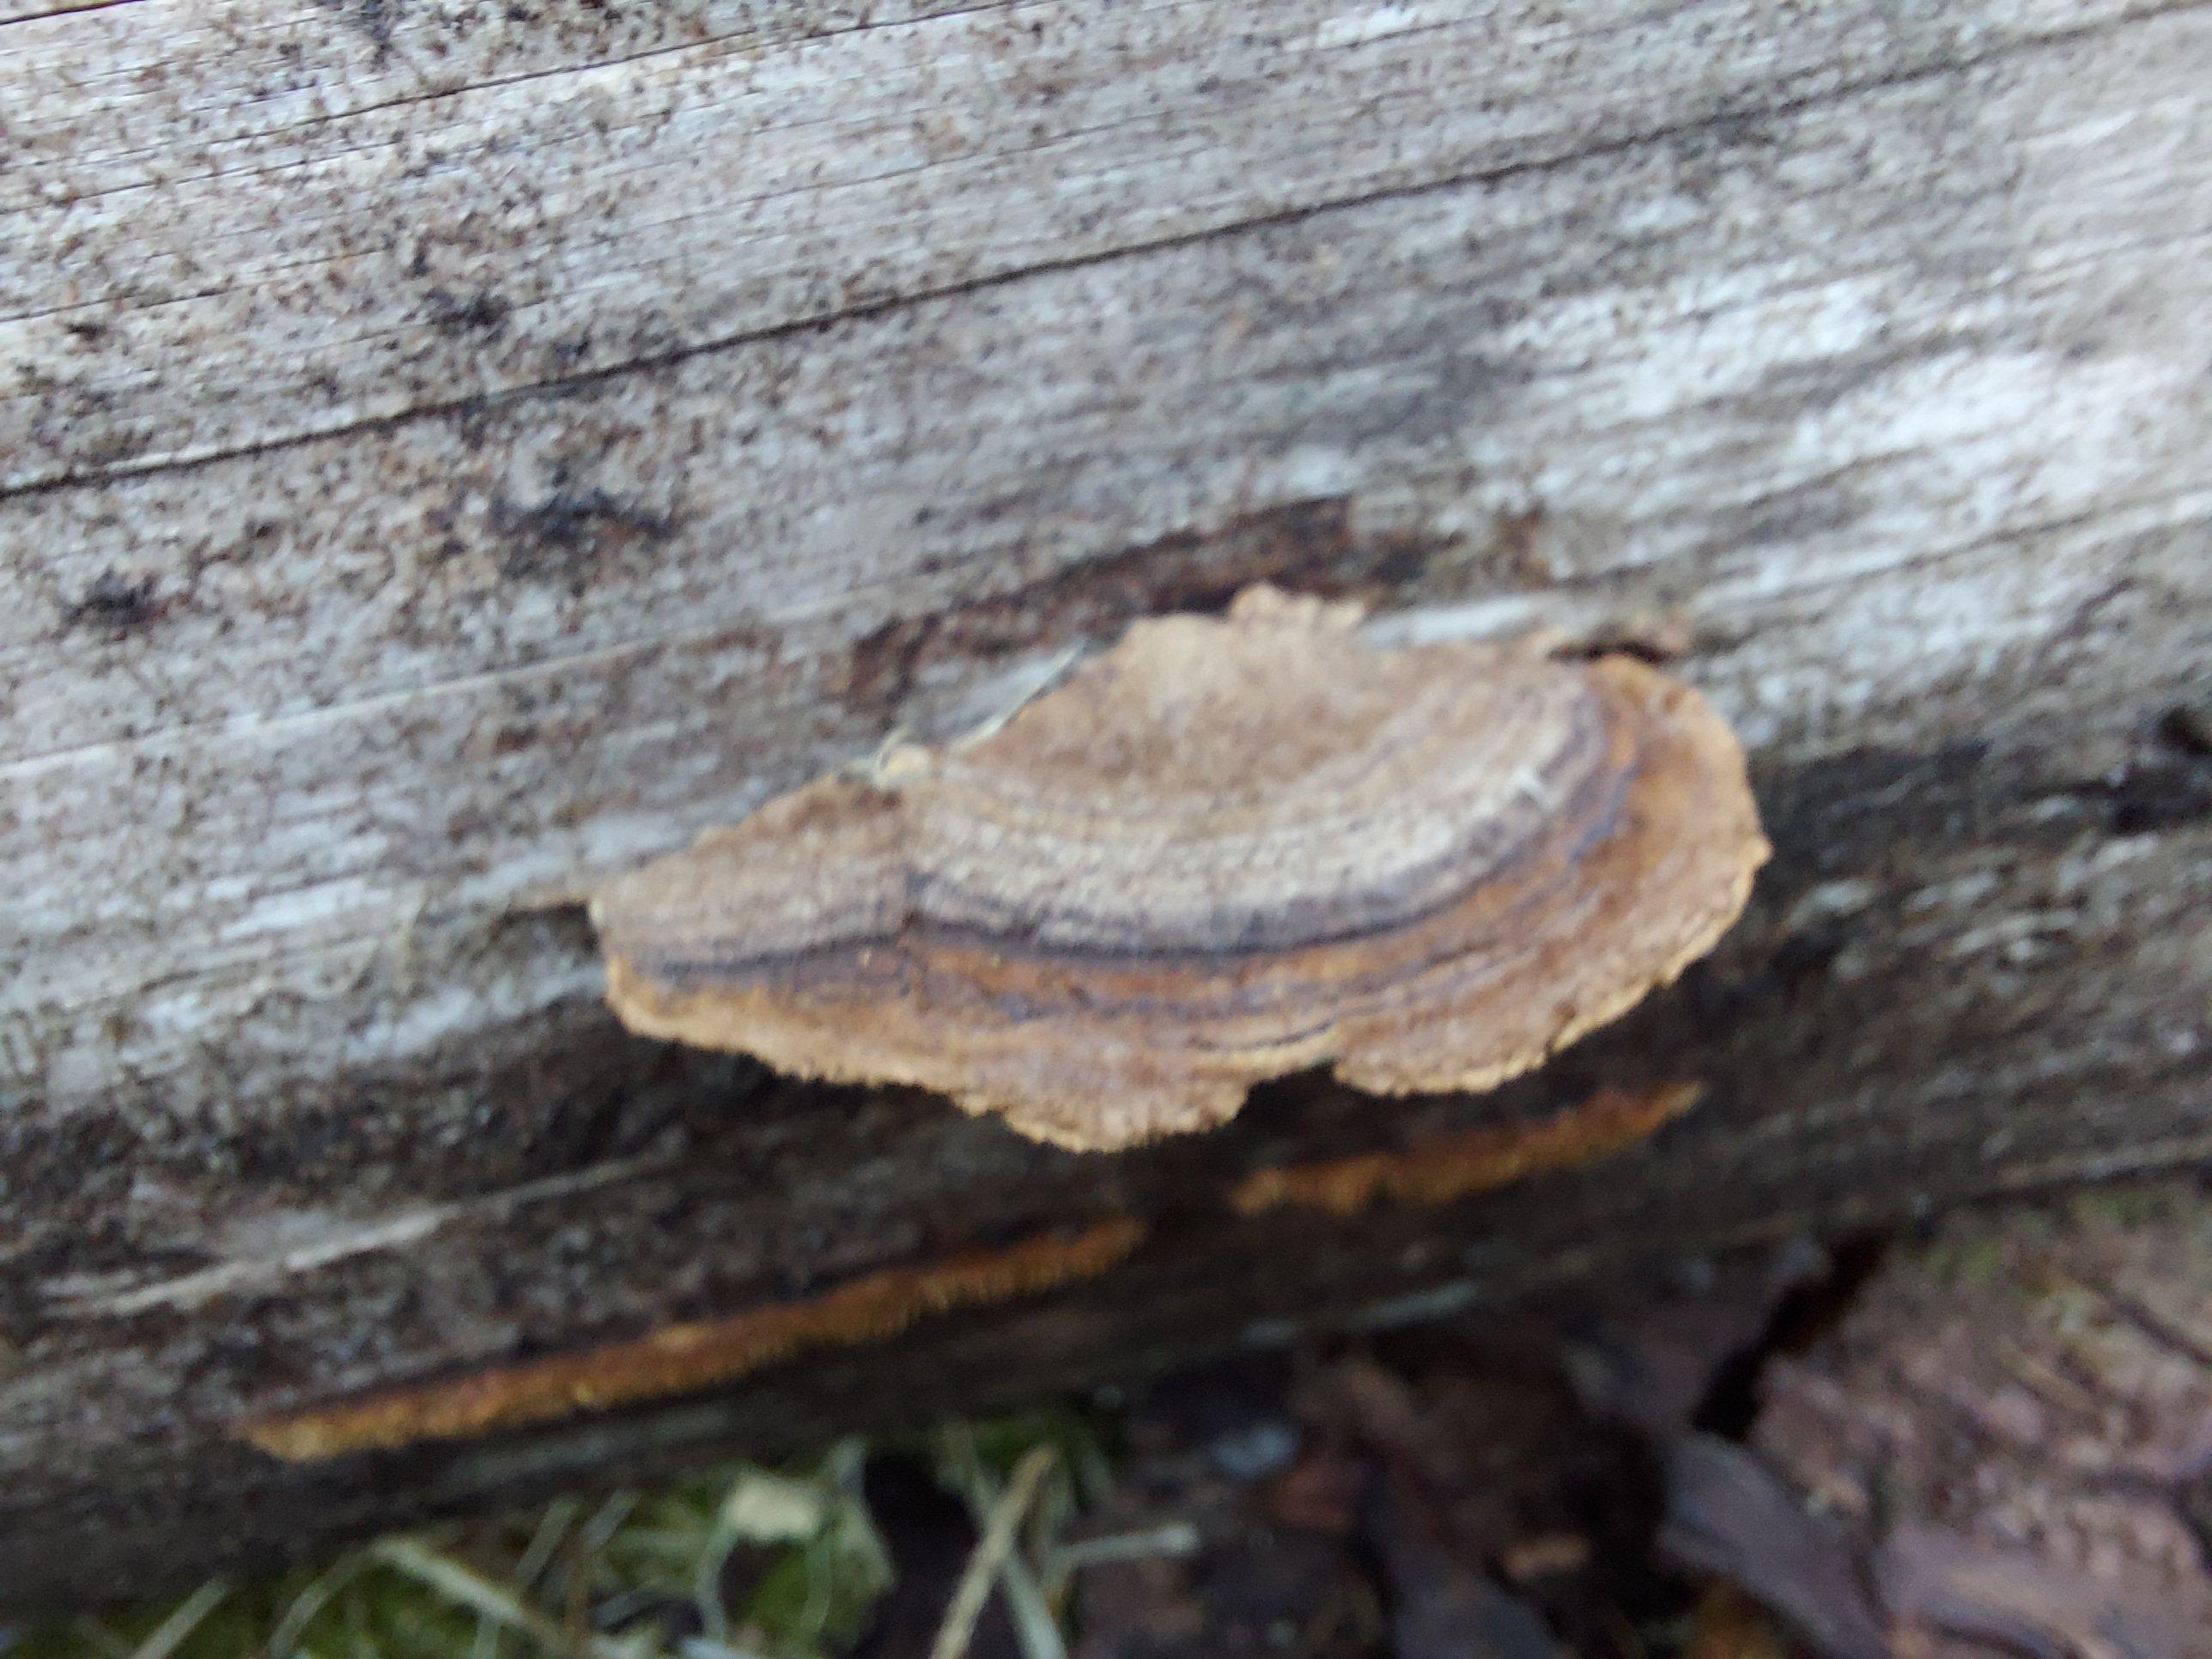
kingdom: Fungi
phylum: Basidiomycota
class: Agaricomycetes
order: Gloeophyllales
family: Gloeophyllaceae
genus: Gloeophyllum
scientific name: Gloeophyllum sepiarium
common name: fyrre-korkhat
